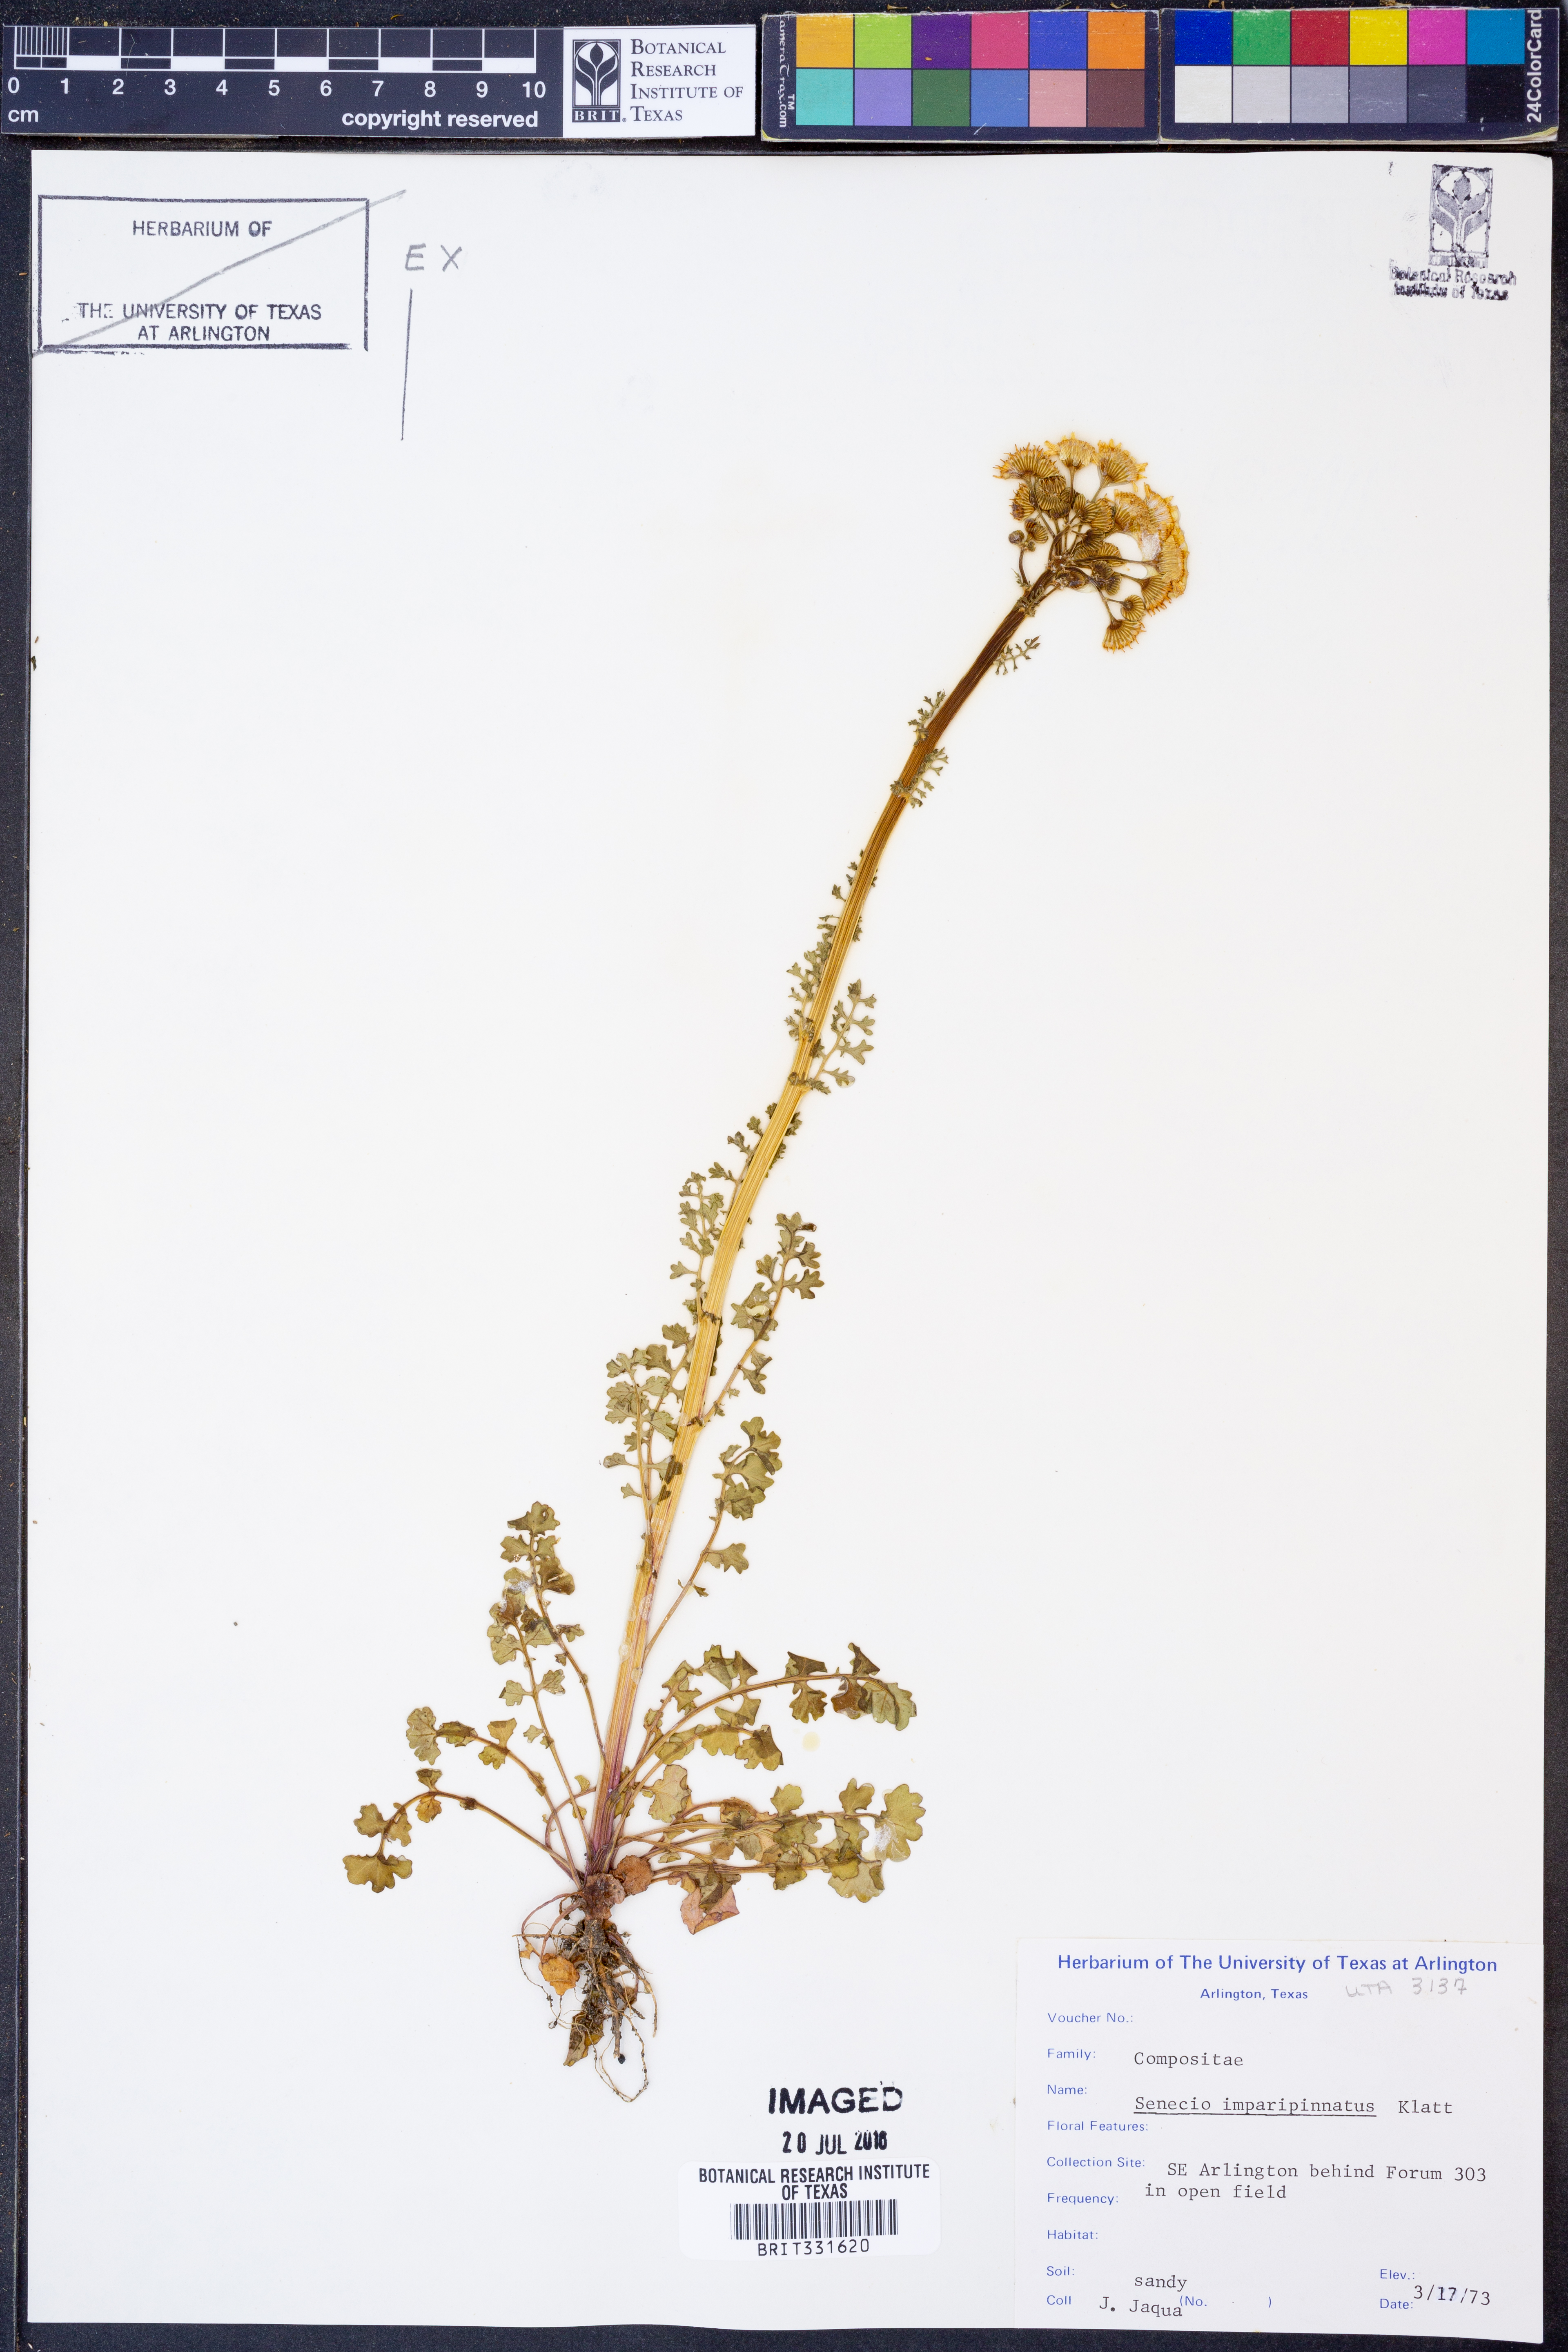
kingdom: Plantae
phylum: Tracheophyta
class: Magnoliopsida
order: Asterales
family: Asteraceae
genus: Packera
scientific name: Packera tampicana
